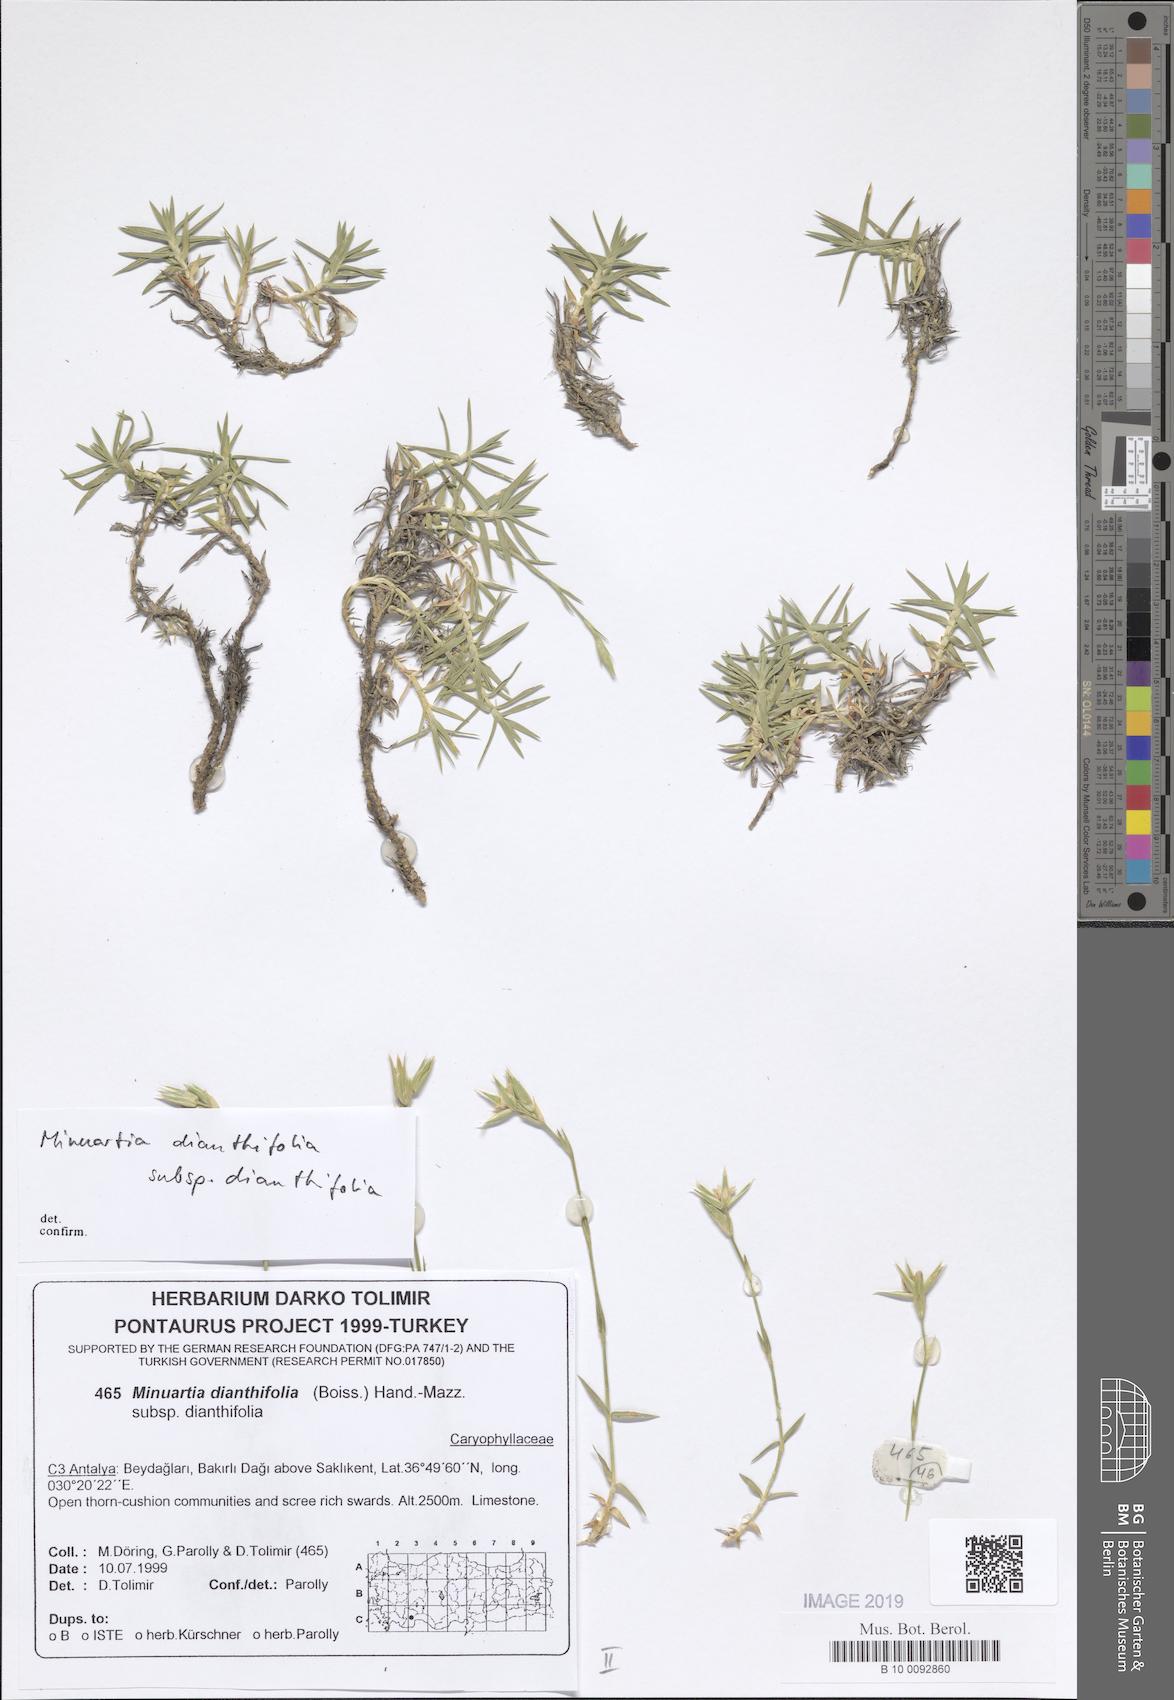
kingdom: Plantae
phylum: Tracheophyta
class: Magnoliopsida
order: Caryophyllales
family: Caryophyllaceae
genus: Minuartiella
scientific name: Minuartiella dianthifolia
